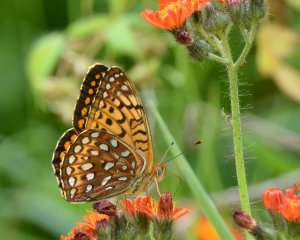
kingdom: Animalia
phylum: Arthropoda
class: Insecta
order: Lepidoptera
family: Nymphalidae
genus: Speyeria
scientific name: Speyeria atlantis
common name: Atlantis Fritillary
